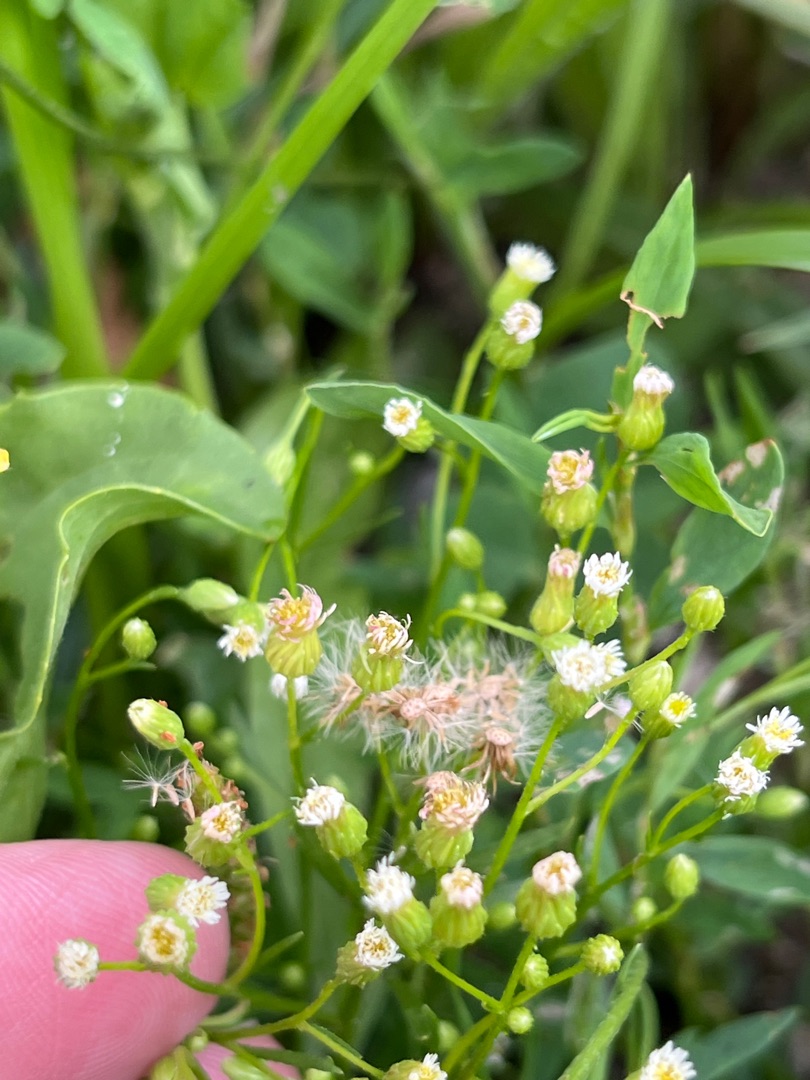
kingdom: Plantae
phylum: Tracheophyta
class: Magnoliopsida
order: Asterales
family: Asteraceae
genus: Erigeron
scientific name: Erigeron canadensis
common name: Kanadisk bakkestjerne
